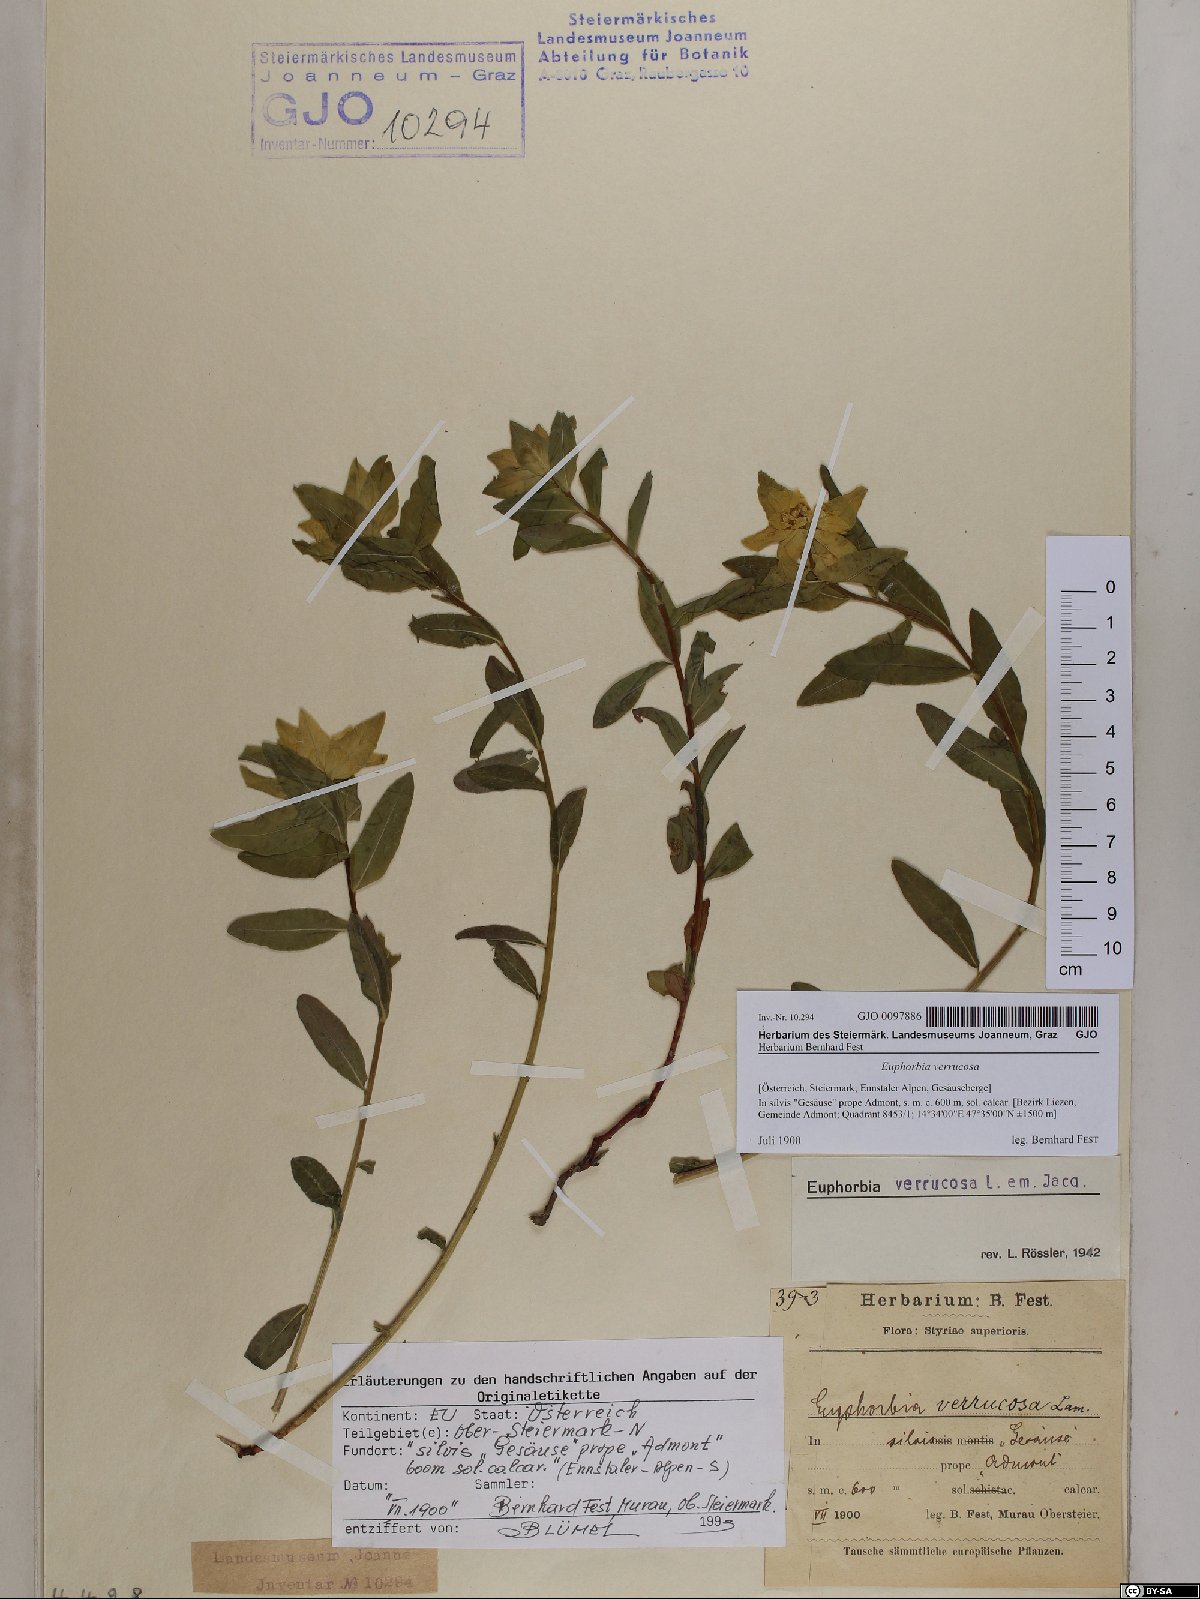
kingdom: Plantae
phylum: Tracheophyta
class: Magnoliopsida
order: Malpighiales
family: Euphorbiaceae
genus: Euphorbia
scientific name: Euphorbia verrucosa
